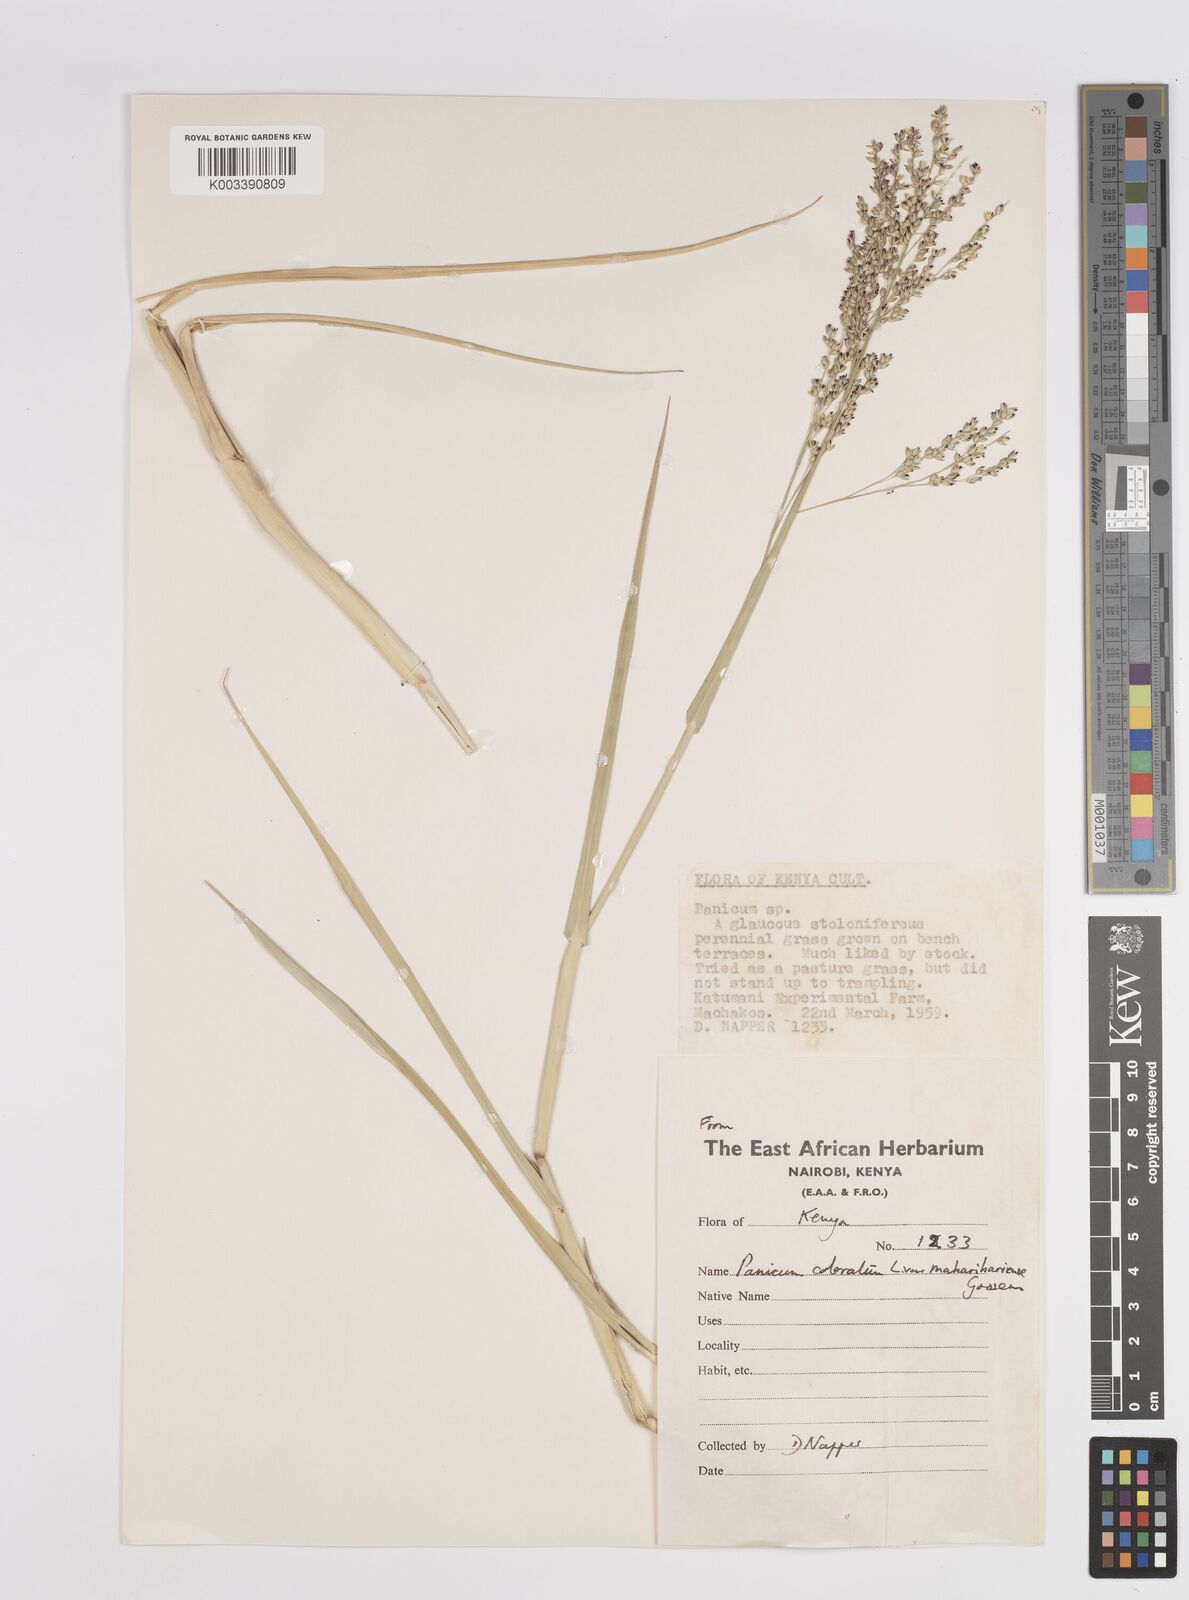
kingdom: Plantae
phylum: Tracheophyta
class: Liliopsida
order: Poales
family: Poaceae
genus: Panicum
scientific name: Panicum coloratum
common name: Kleingrass
